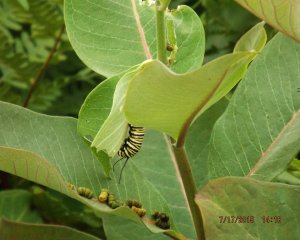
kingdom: Animalia
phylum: Arthropoda
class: Insecta
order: Lepidoptera
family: Nymphalidae
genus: Danaus
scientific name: Danaus plexippus
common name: Monarch
